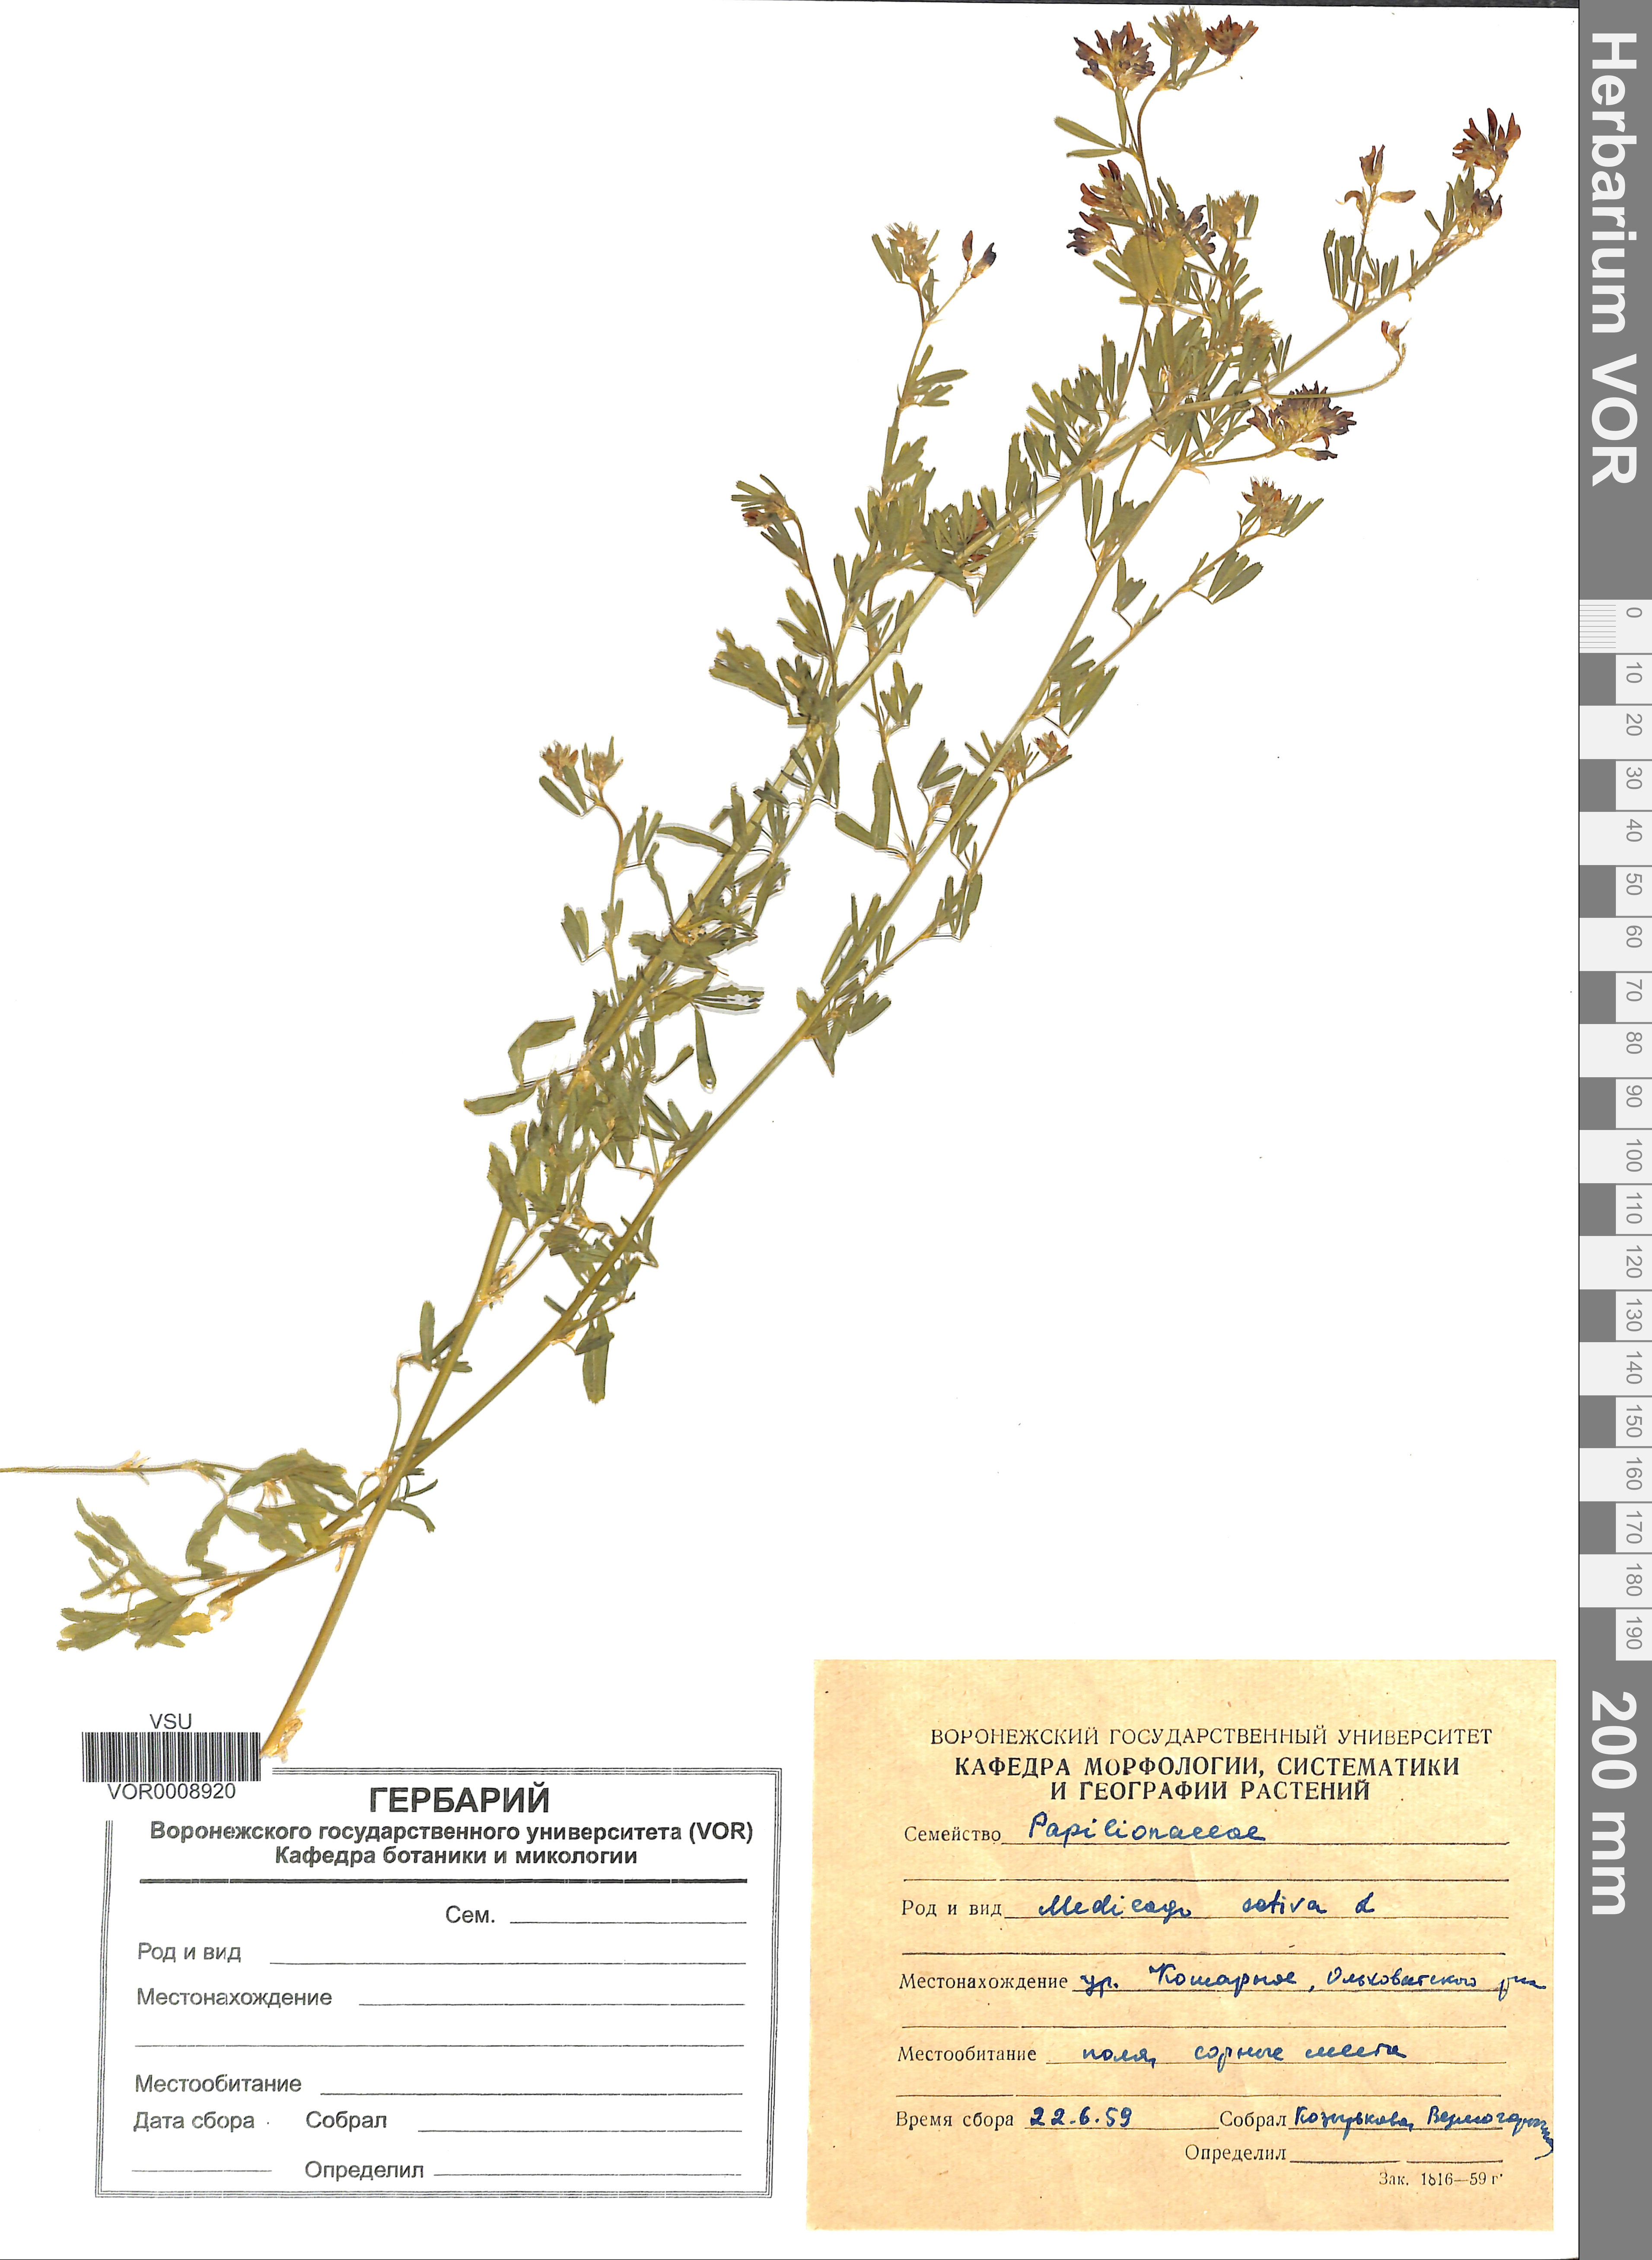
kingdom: Plantae
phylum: Tracheophyta
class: Magnoliopsida
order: Fabales
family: Fabaceae
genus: Medicago
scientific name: Medicago sativa
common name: Alfalfa
